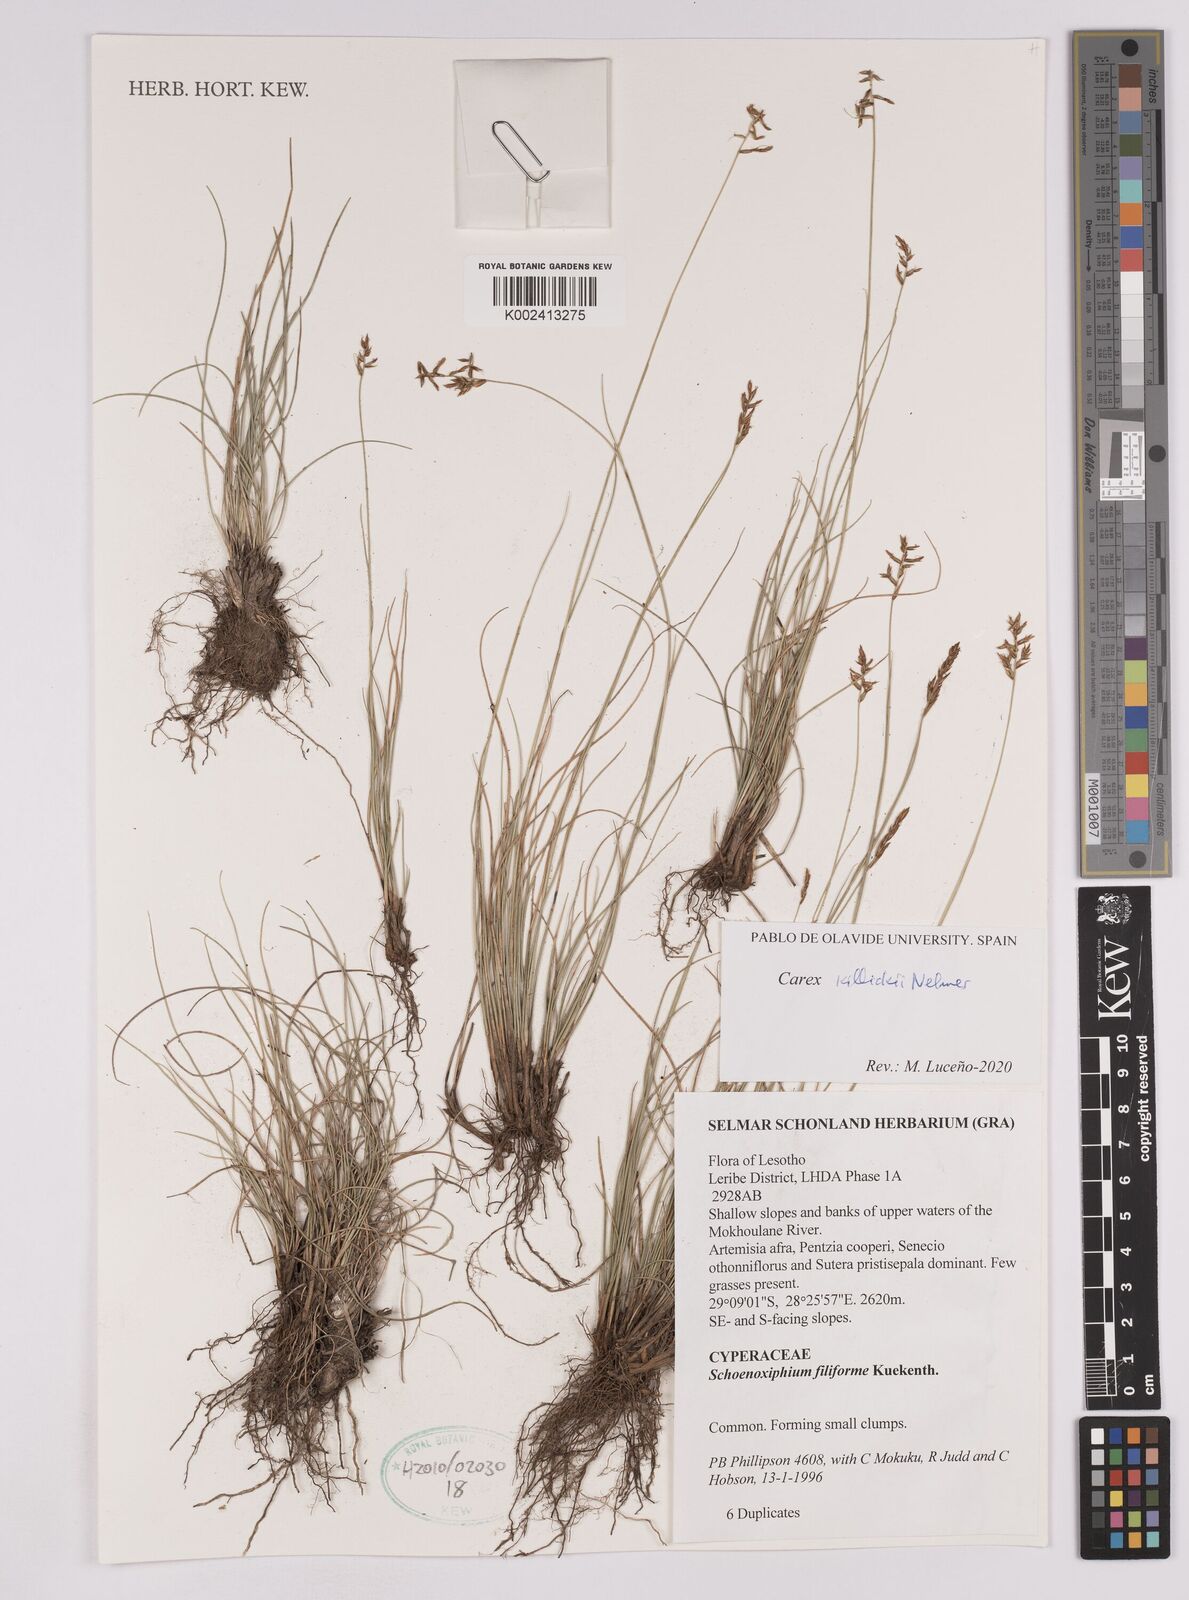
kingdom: Plantae
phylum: Tracheophyta
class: Liliopsida
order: Poales
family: Cyperaceae
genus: Carex
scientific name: Carex
